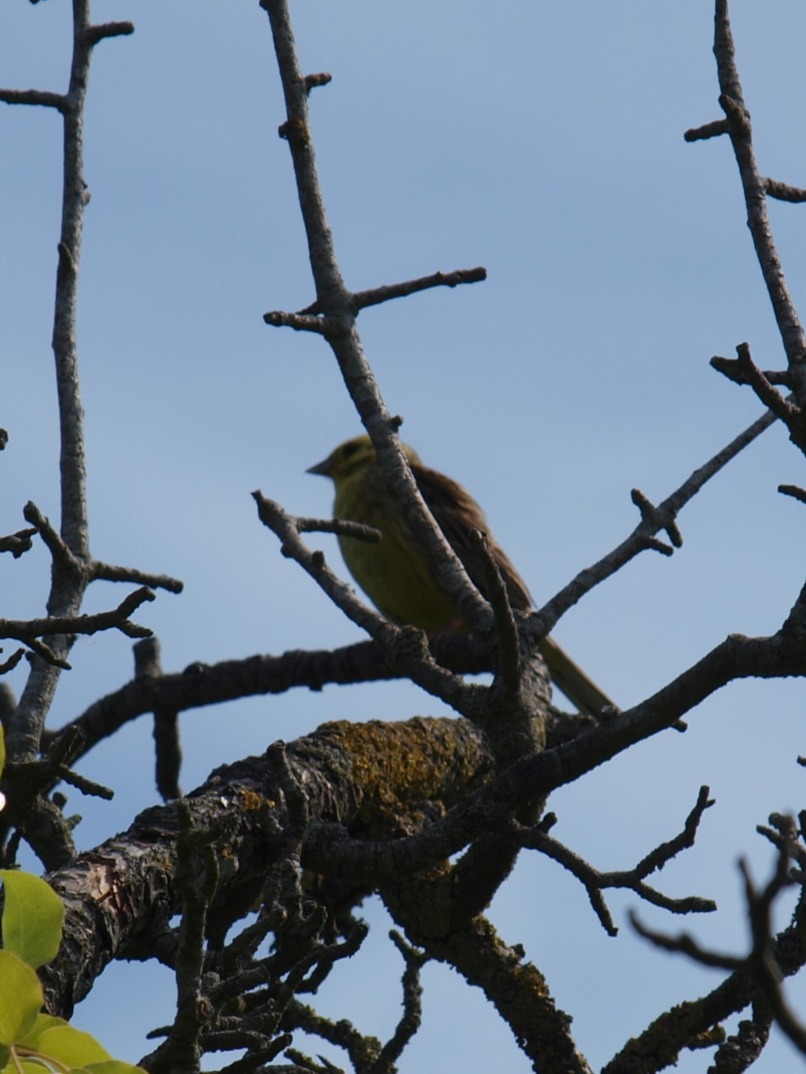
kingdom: Animalia
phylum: Chordata
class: Aves
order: Passeriformes
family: Emberizidae
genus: Emberiza
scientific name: Emberiza citrinella
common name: Gulspurv
